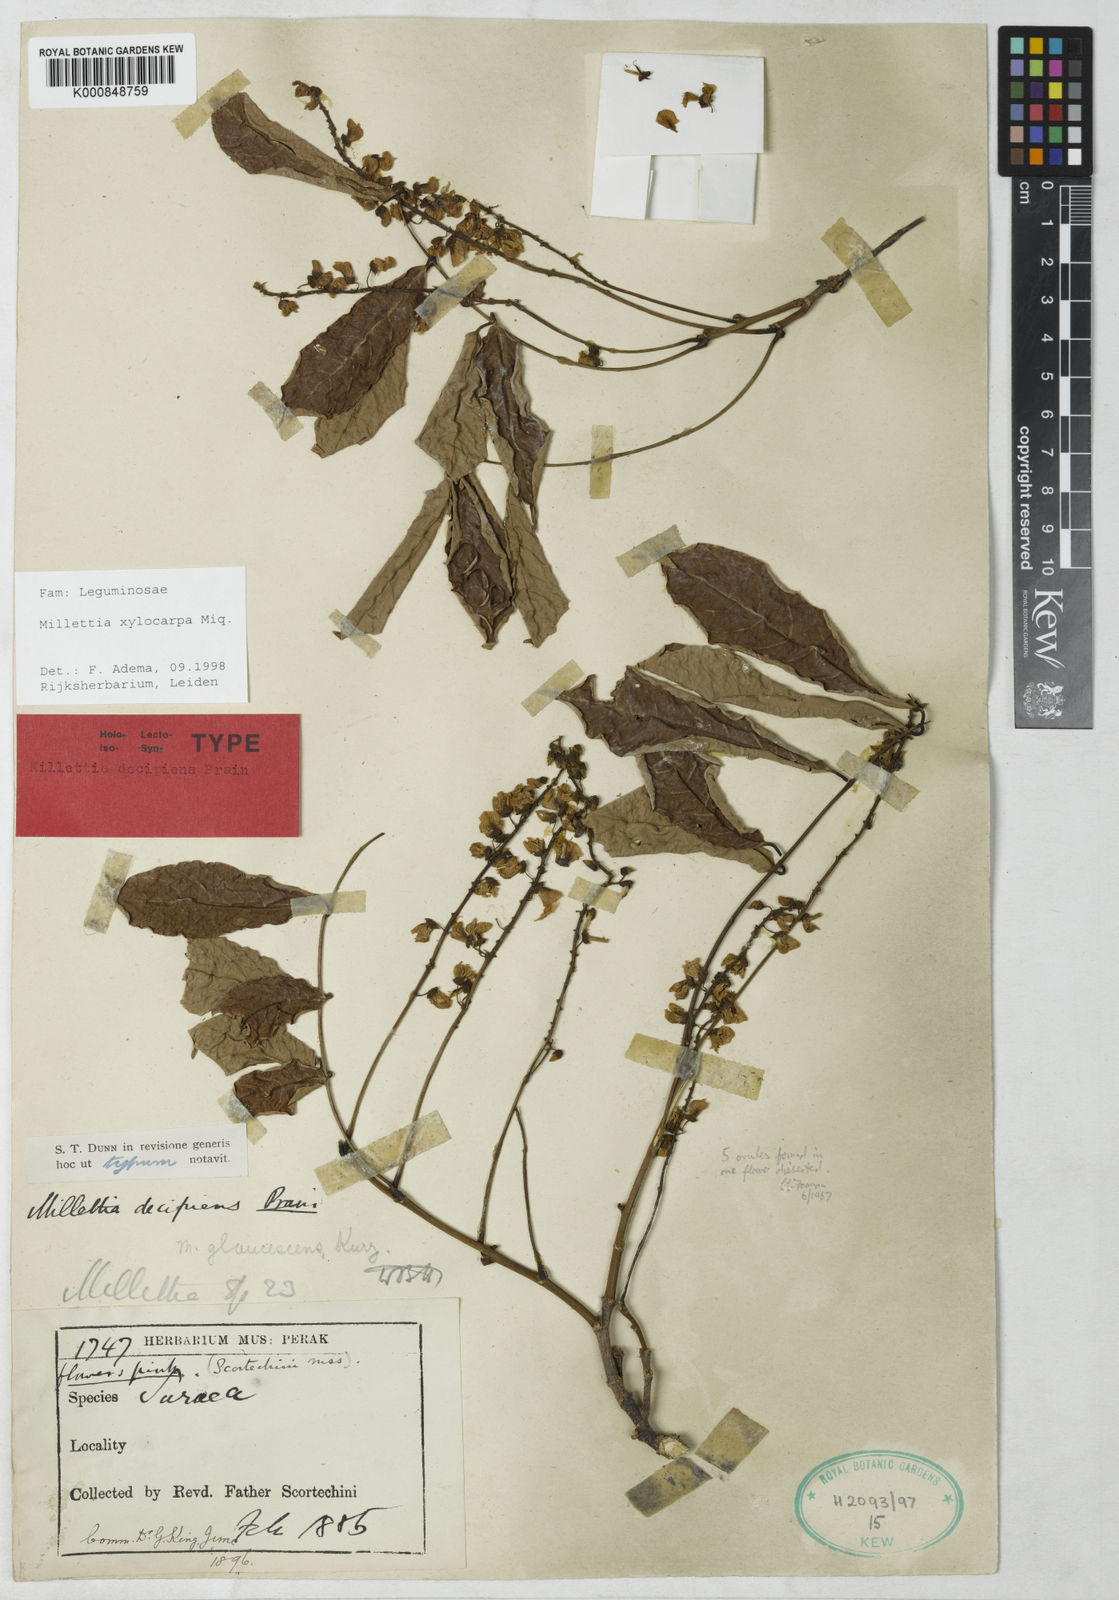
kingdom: Plantae
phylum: Tracheophyta
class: Magnoliopsida
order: Fabales
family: Fabaceae
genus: Millettia
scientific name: Millettia xylocarpa
